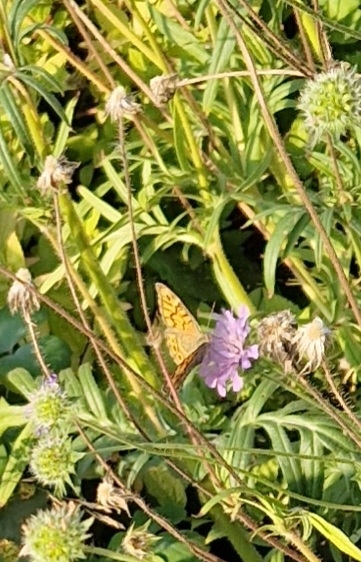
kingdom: Animalia
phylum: Arthropoda
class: Insecta
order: Lepidoptera
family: Nymphalidae
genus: Pararge
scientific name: Pararge Lasiommata megera
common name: Vejrandøje
